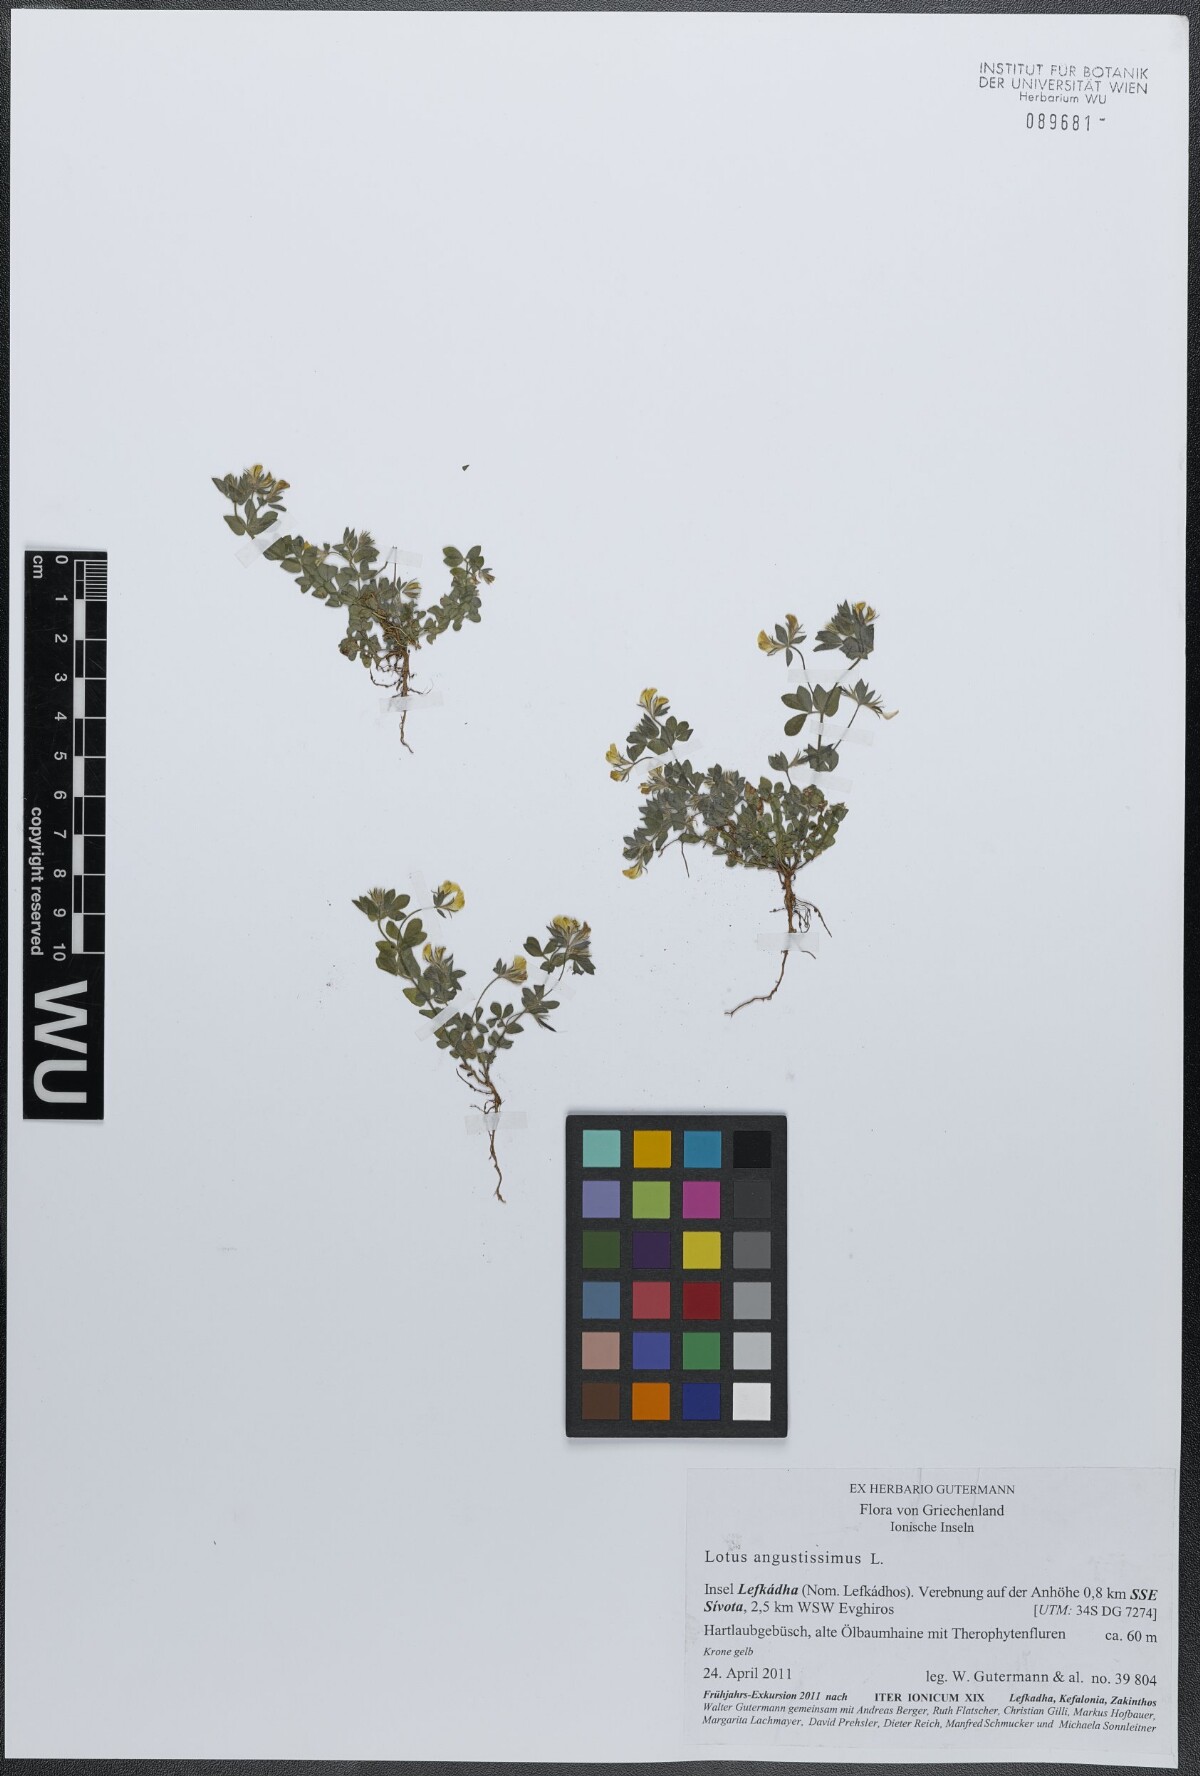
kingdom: Plantae
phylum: Tracheophyta
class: Magnoliopsida
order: Fabales
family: Fabaceae
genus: Lotus
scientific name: Lotus angustissimus
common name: Slender bird's-foot trefoil
